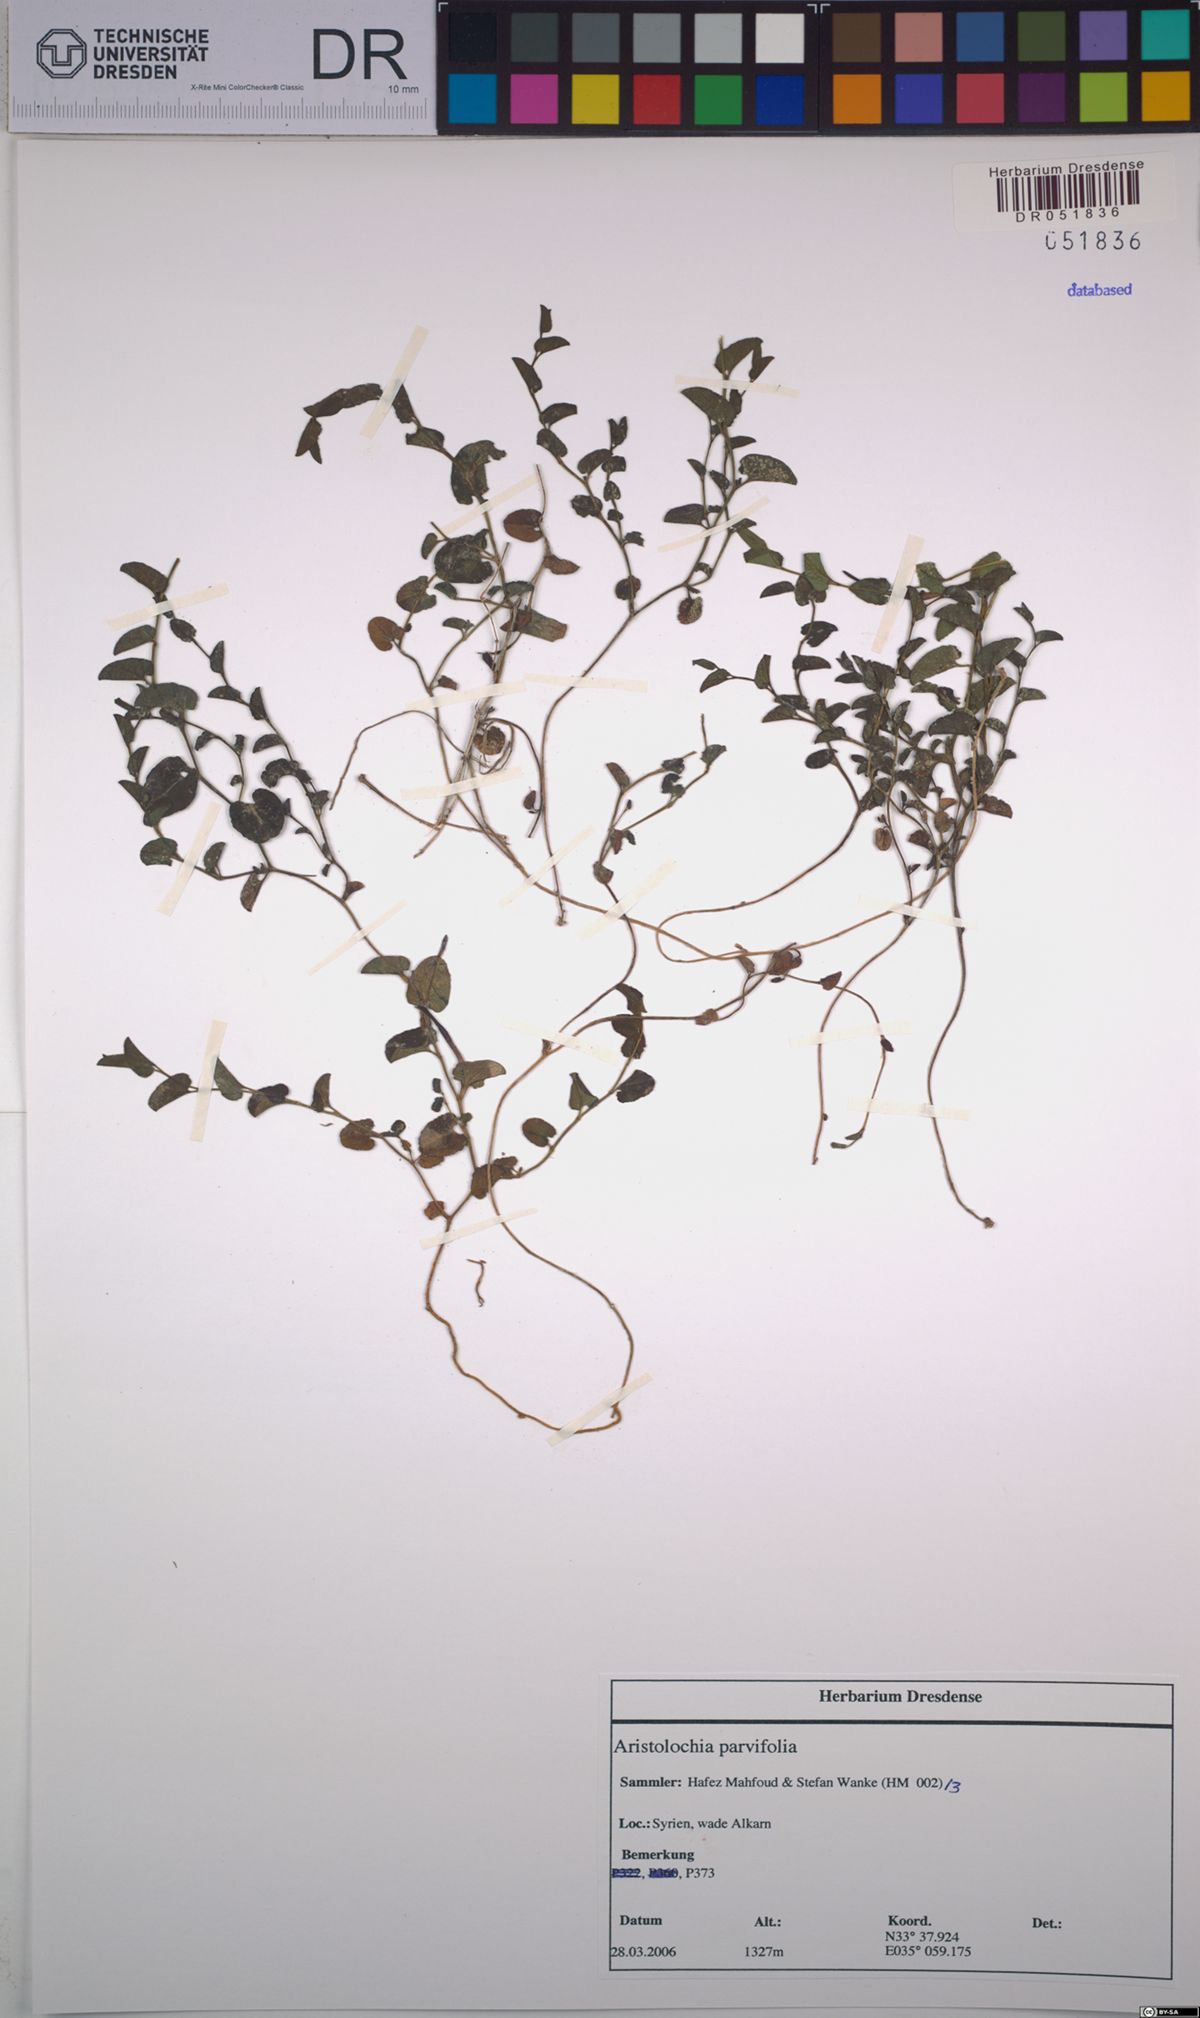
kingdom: Plantae
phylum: Tracheophyta
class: Magnoliopsida
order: Piperales
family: Aristolochiaceae
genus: Aristolochia
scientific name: Aristolochia parvifolia
